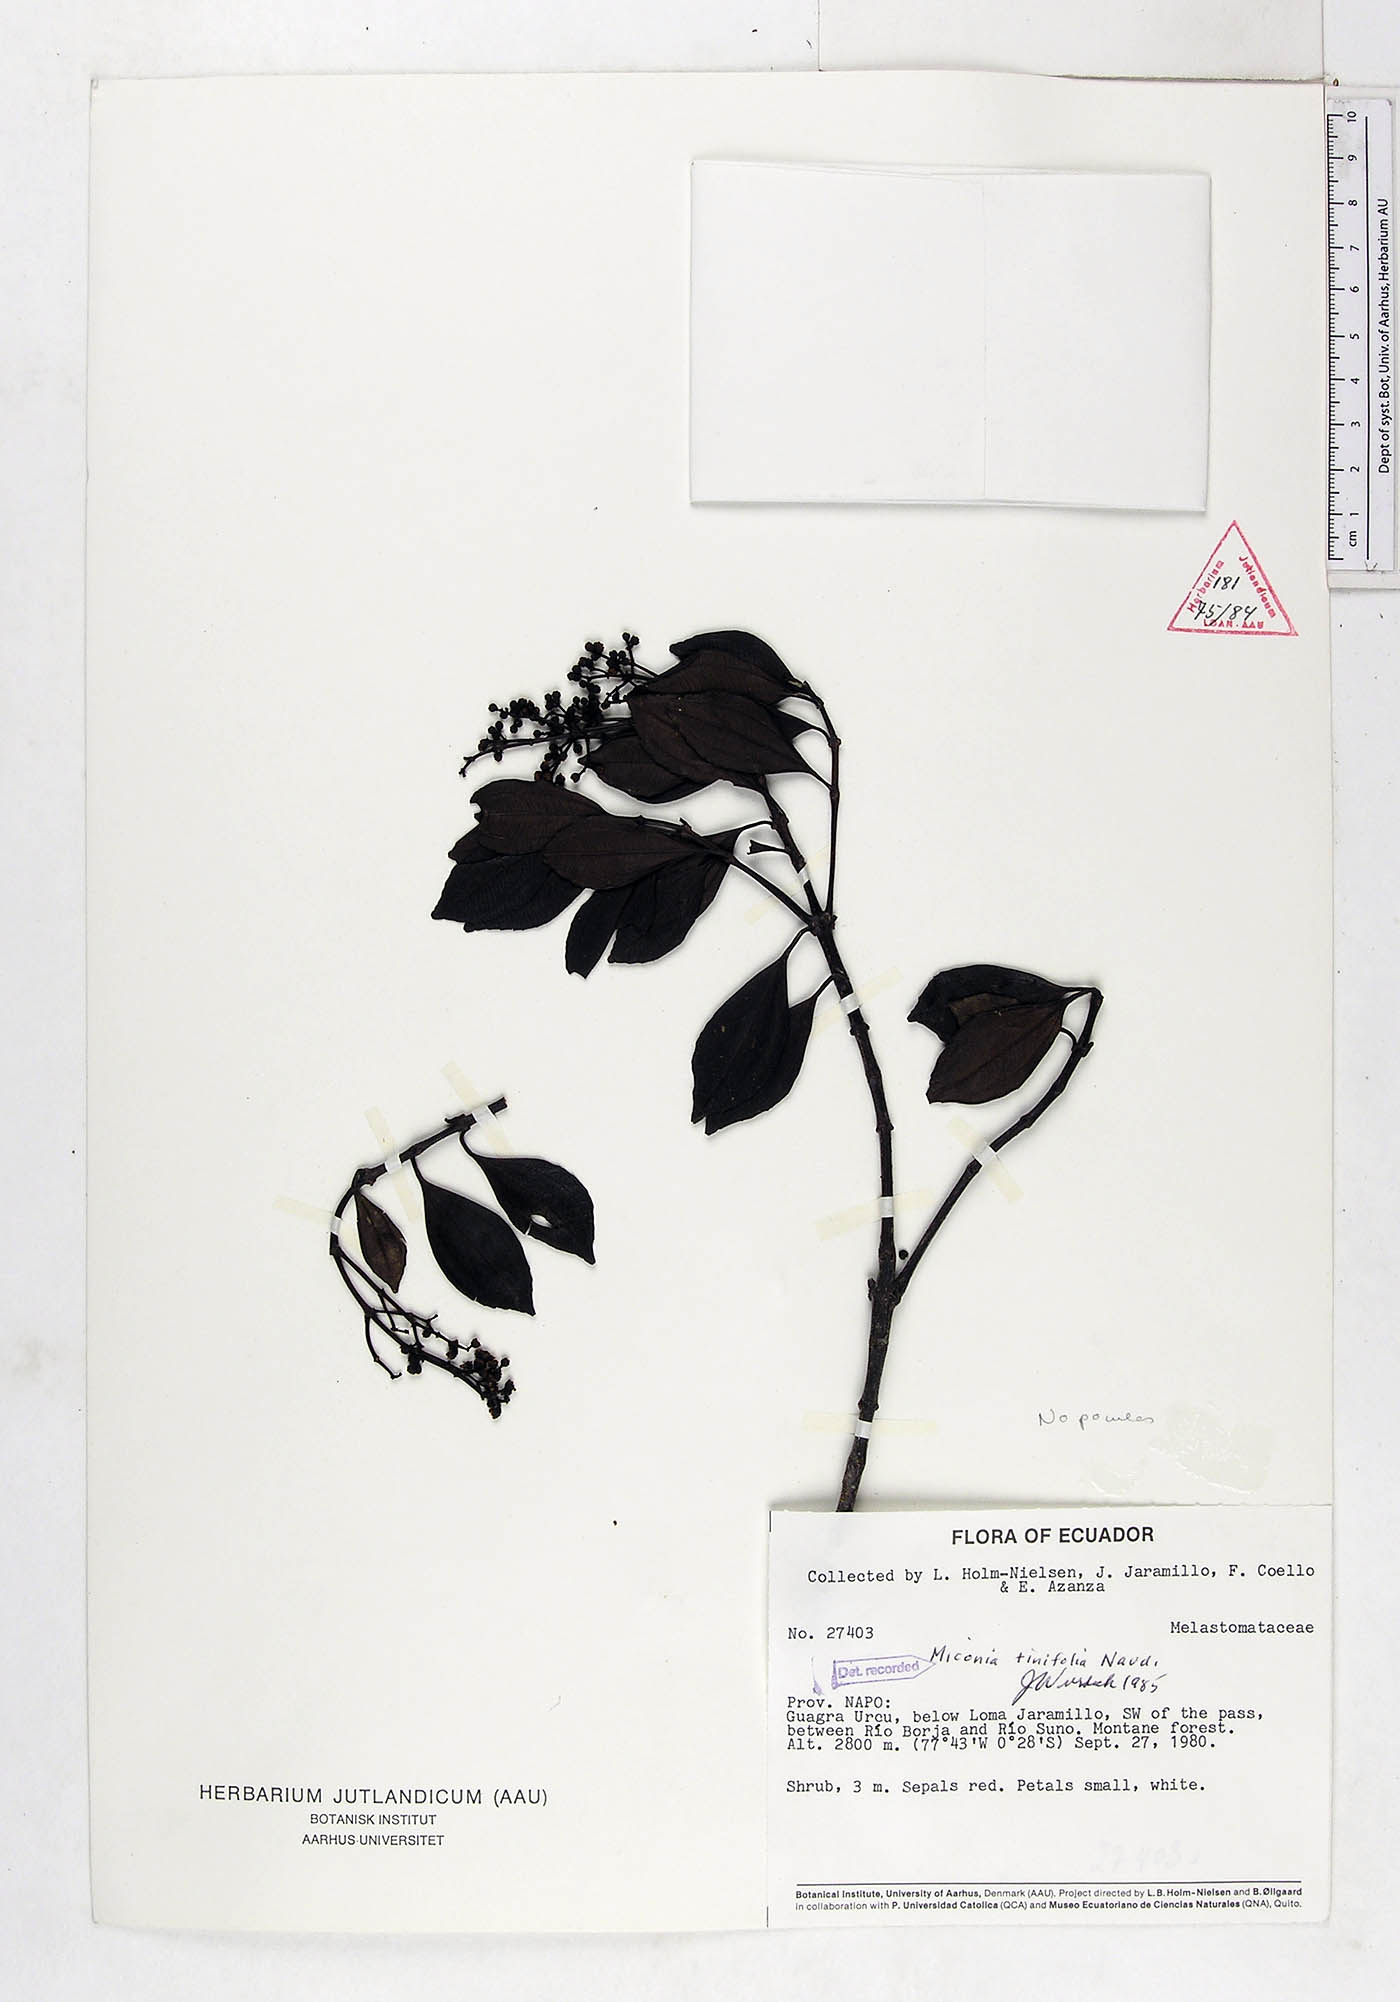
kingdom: Plantae
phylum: Tracheophyta
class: Magnoliopsida
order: Myrtales
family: Melastomataceae
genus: Miconia
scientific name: Miconia tinifolia
